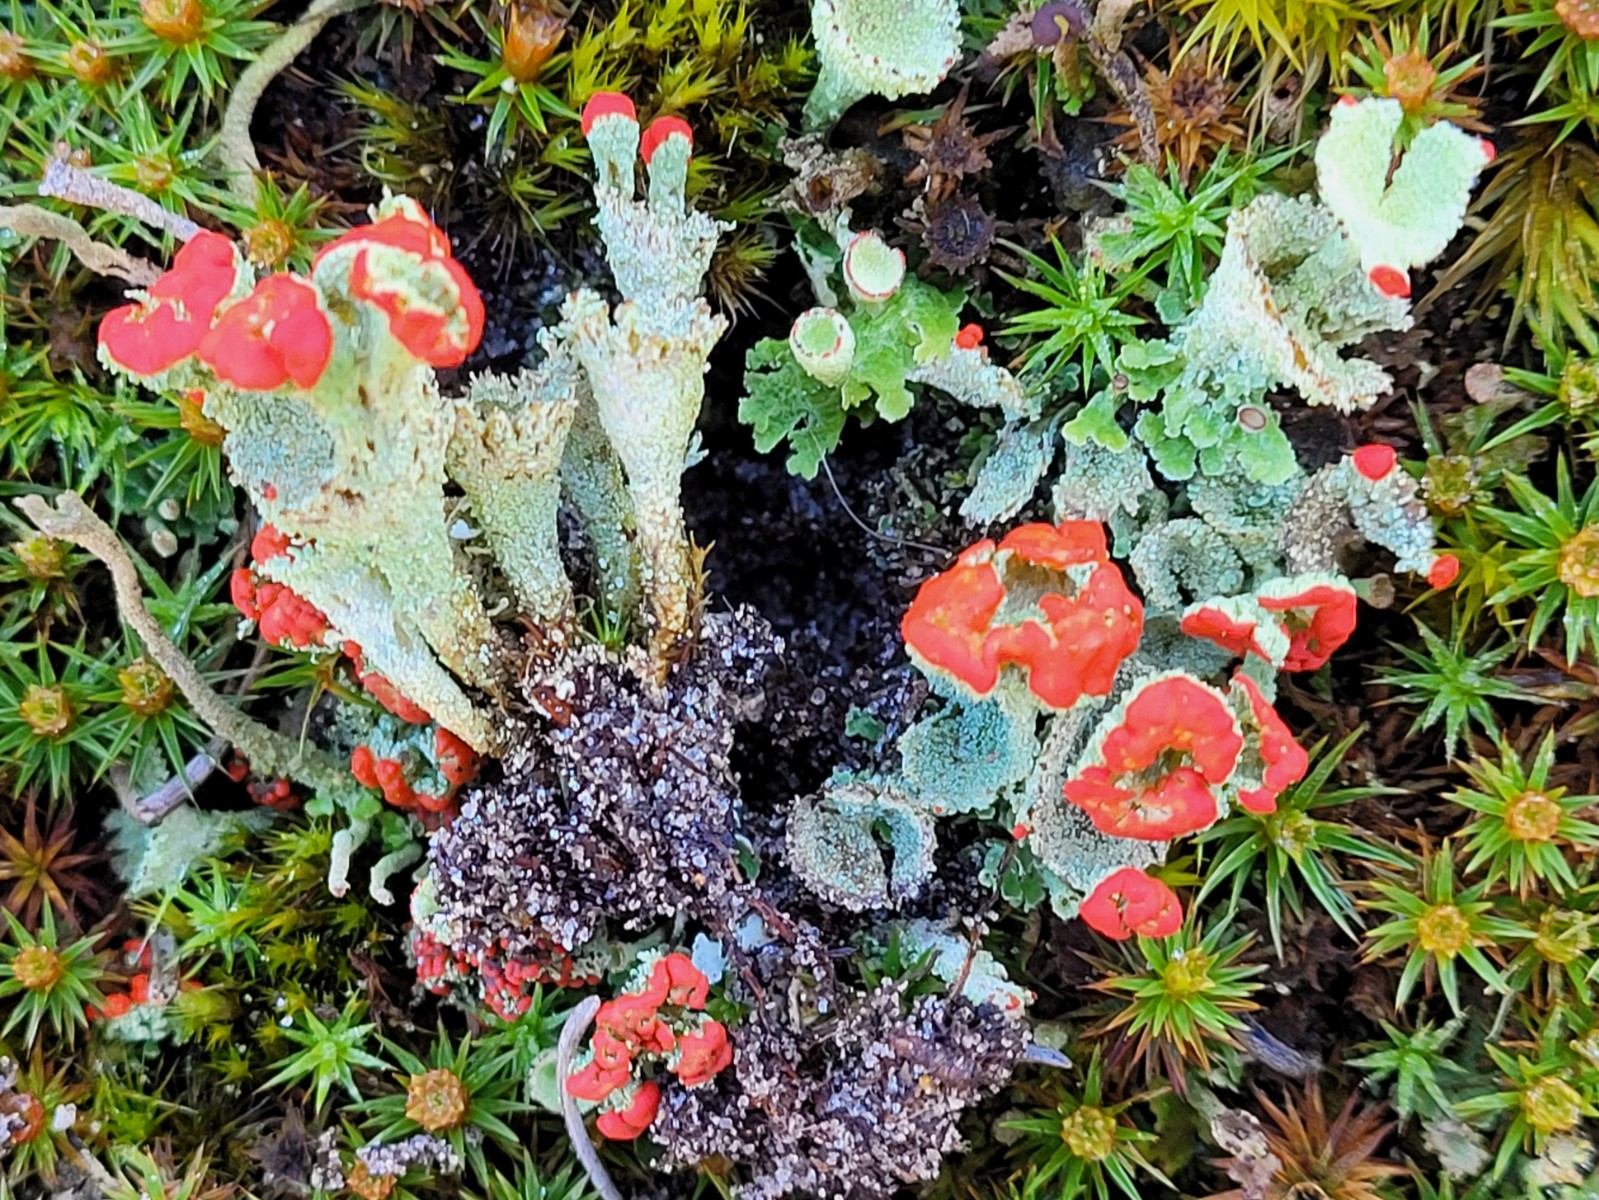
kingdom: Fungi
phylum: Ascomycota
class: Lecanoromycetes
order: Lecanorales
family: Cladoniaceae
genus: Cladonia
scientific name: Cladonia diversa
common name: rød bægerlav
